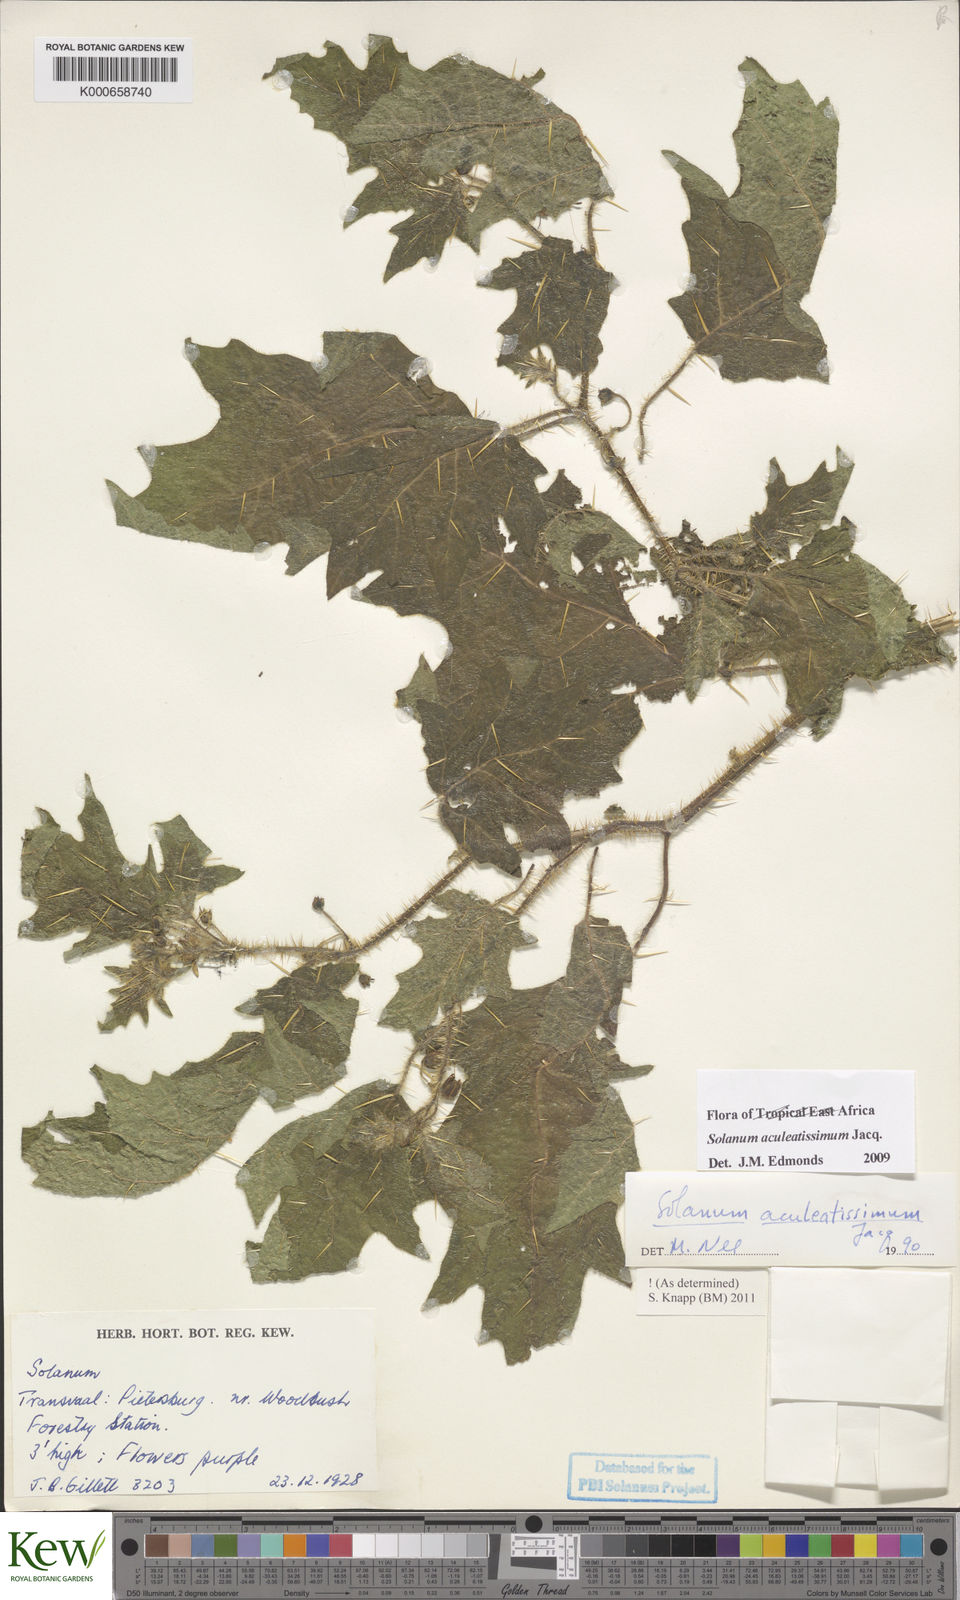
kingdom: Plantae
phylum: Tracheophyta
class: Magnoliopsida
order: Solanales
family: Solanaceae
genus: Solanum
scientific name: Solanum aculeatissimum
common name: Dutch eggplant
